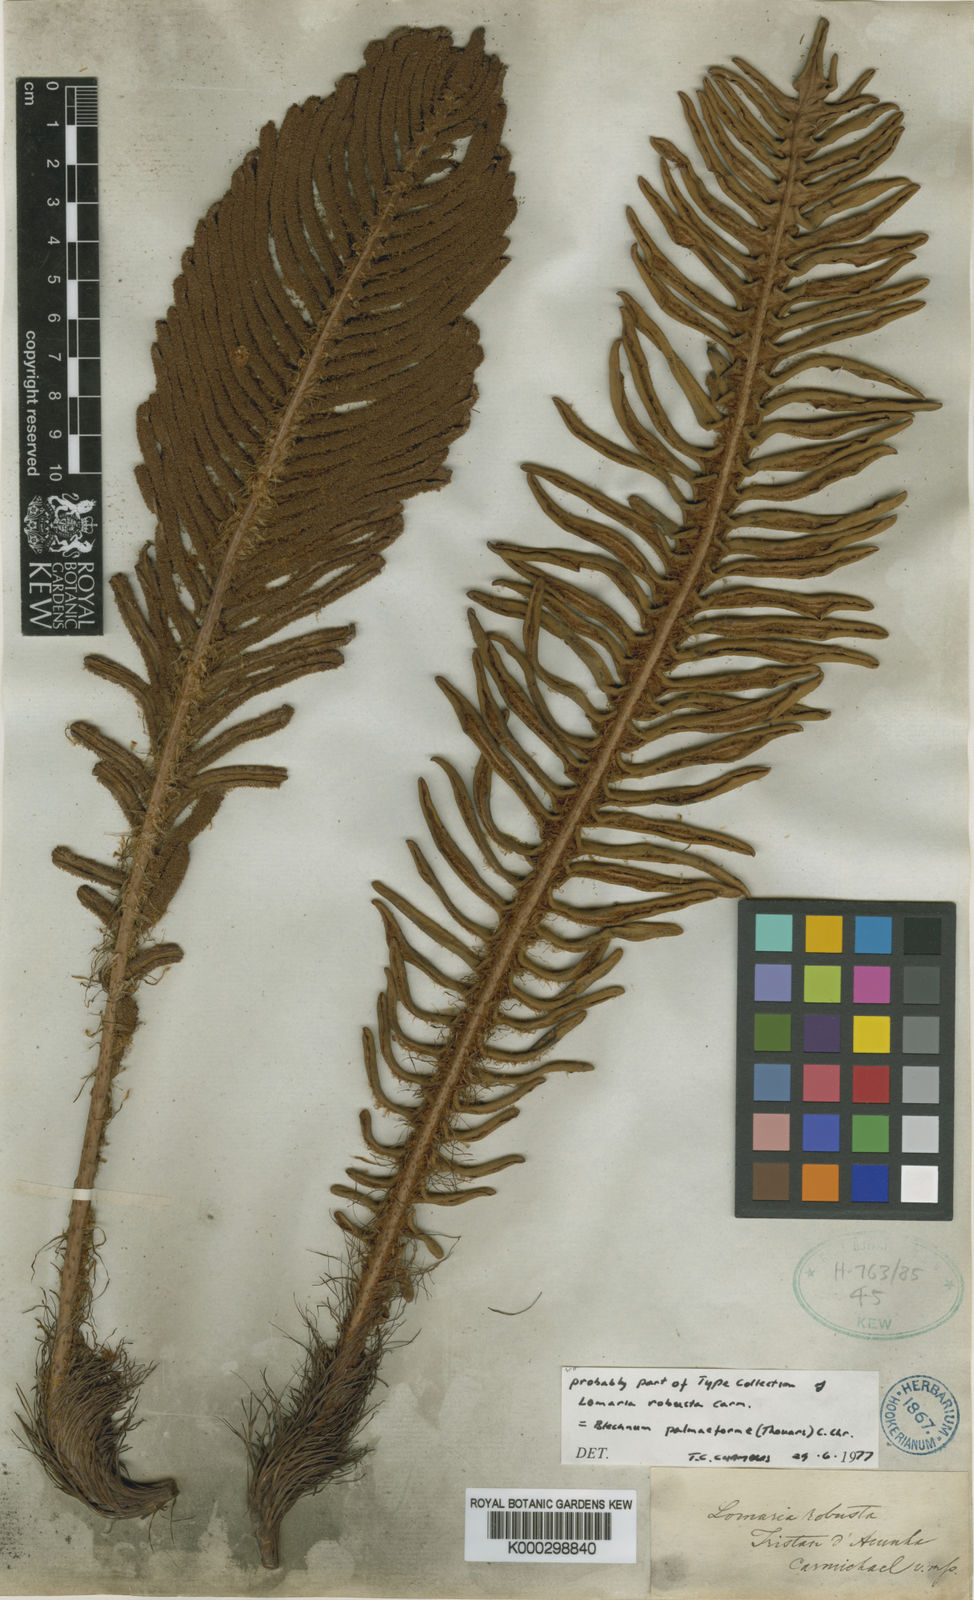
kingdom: Plantae
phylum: Tracheophyta
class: Polypodiopsida
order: Polypodiales
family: Blechnaceae
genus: Lomariocycas
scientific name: Lomariocycas palmiformis
